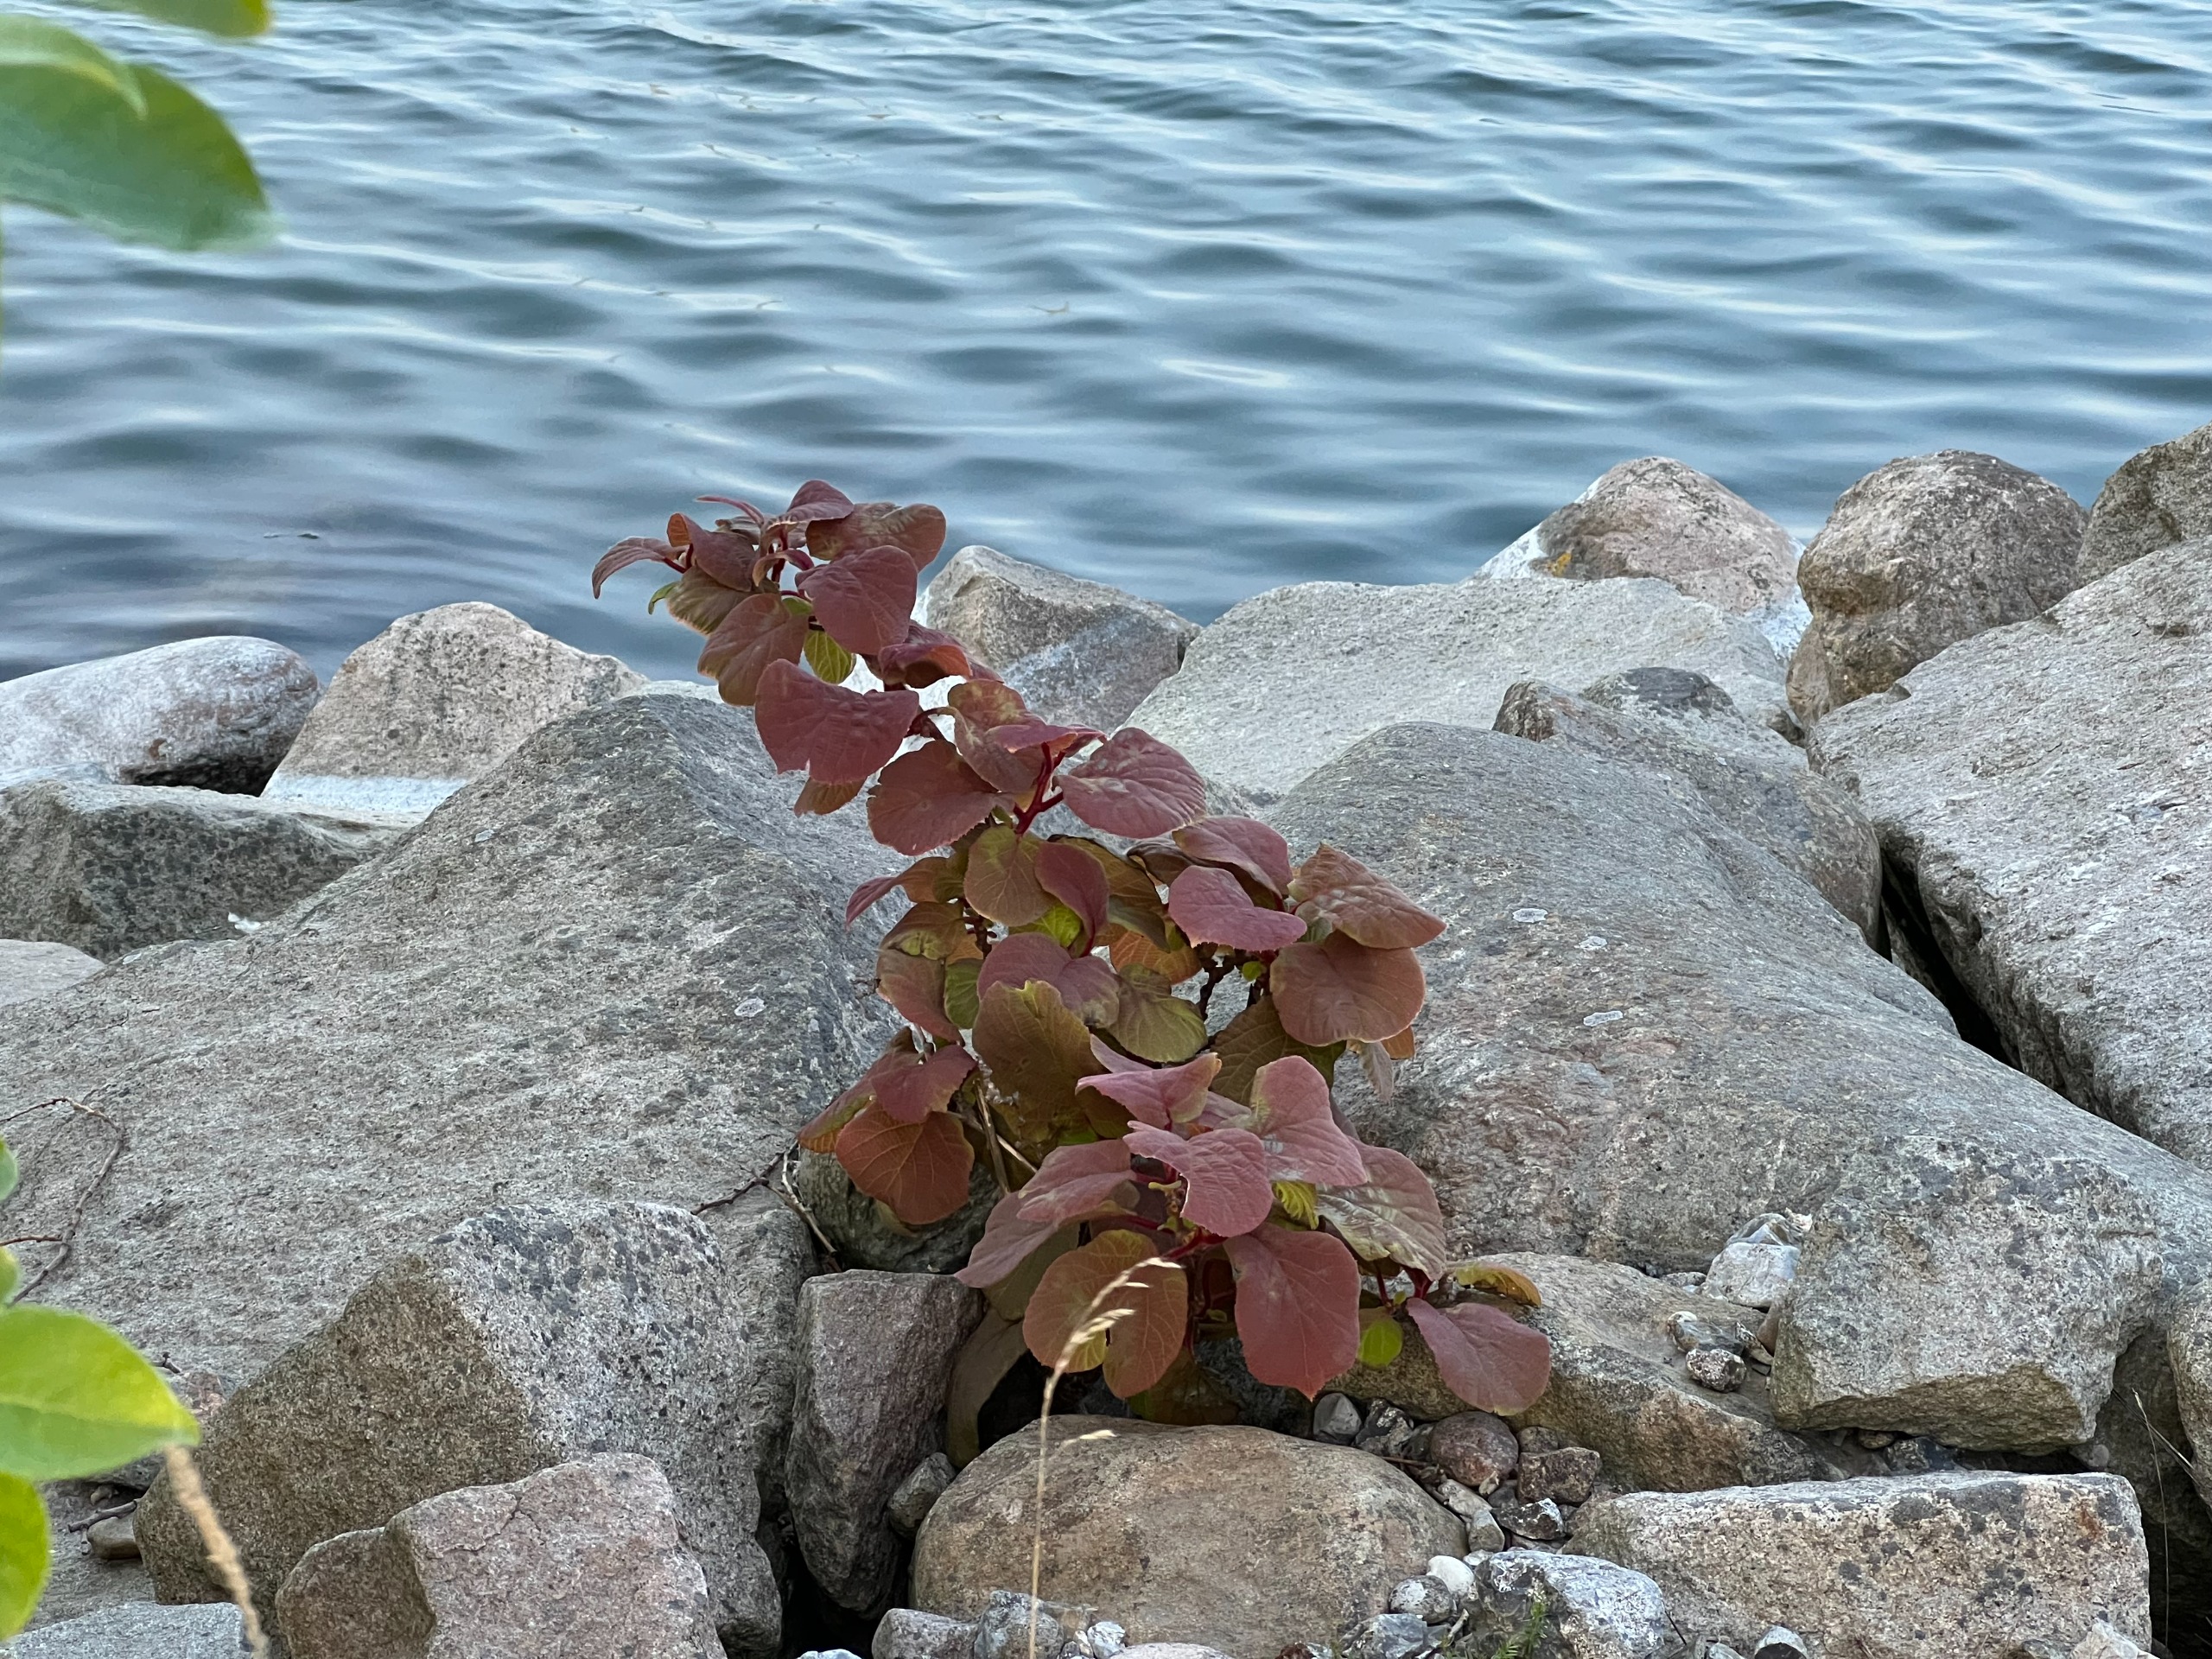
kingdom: Plantae
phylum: Tracheophyta
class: Magnoliopsida
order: Ericales
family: Actinidiaceae
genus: Actinidia
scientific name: Actinidia chinensis
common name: Kiwi
